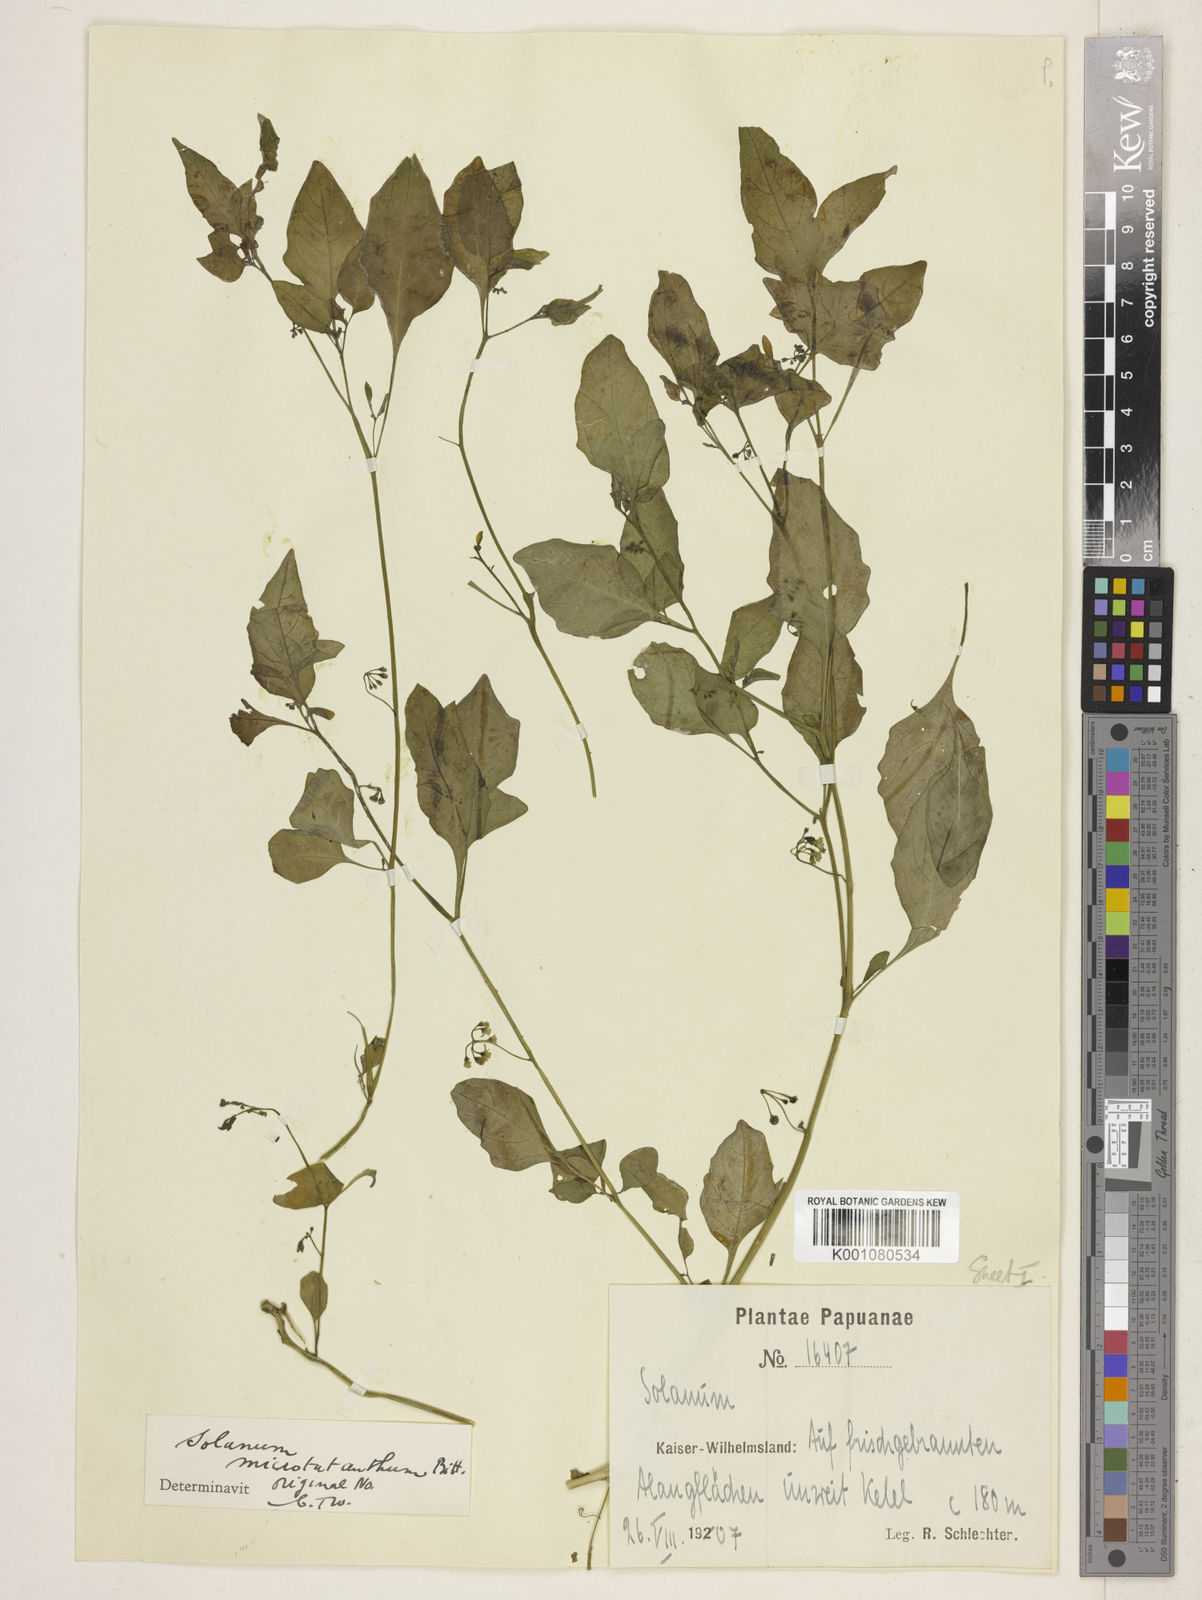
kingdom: Plantae
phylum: Tracheophyta
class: Magnoliopsida
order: Solanales
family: Solanaceae
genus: Solanum
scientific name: Solanum
